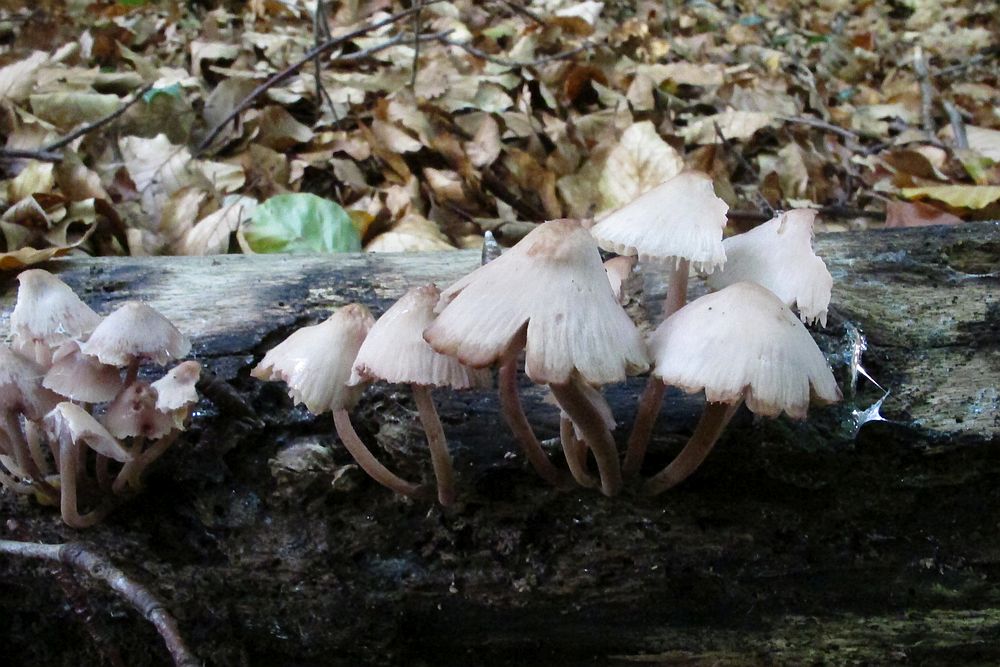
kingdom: Fungi
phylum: Basidiomycota
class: Agaricomycetes
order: Agaricales
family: Mycenaceae
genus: Mycena
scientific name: Mycena haematopus
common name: blødende huesvamp
